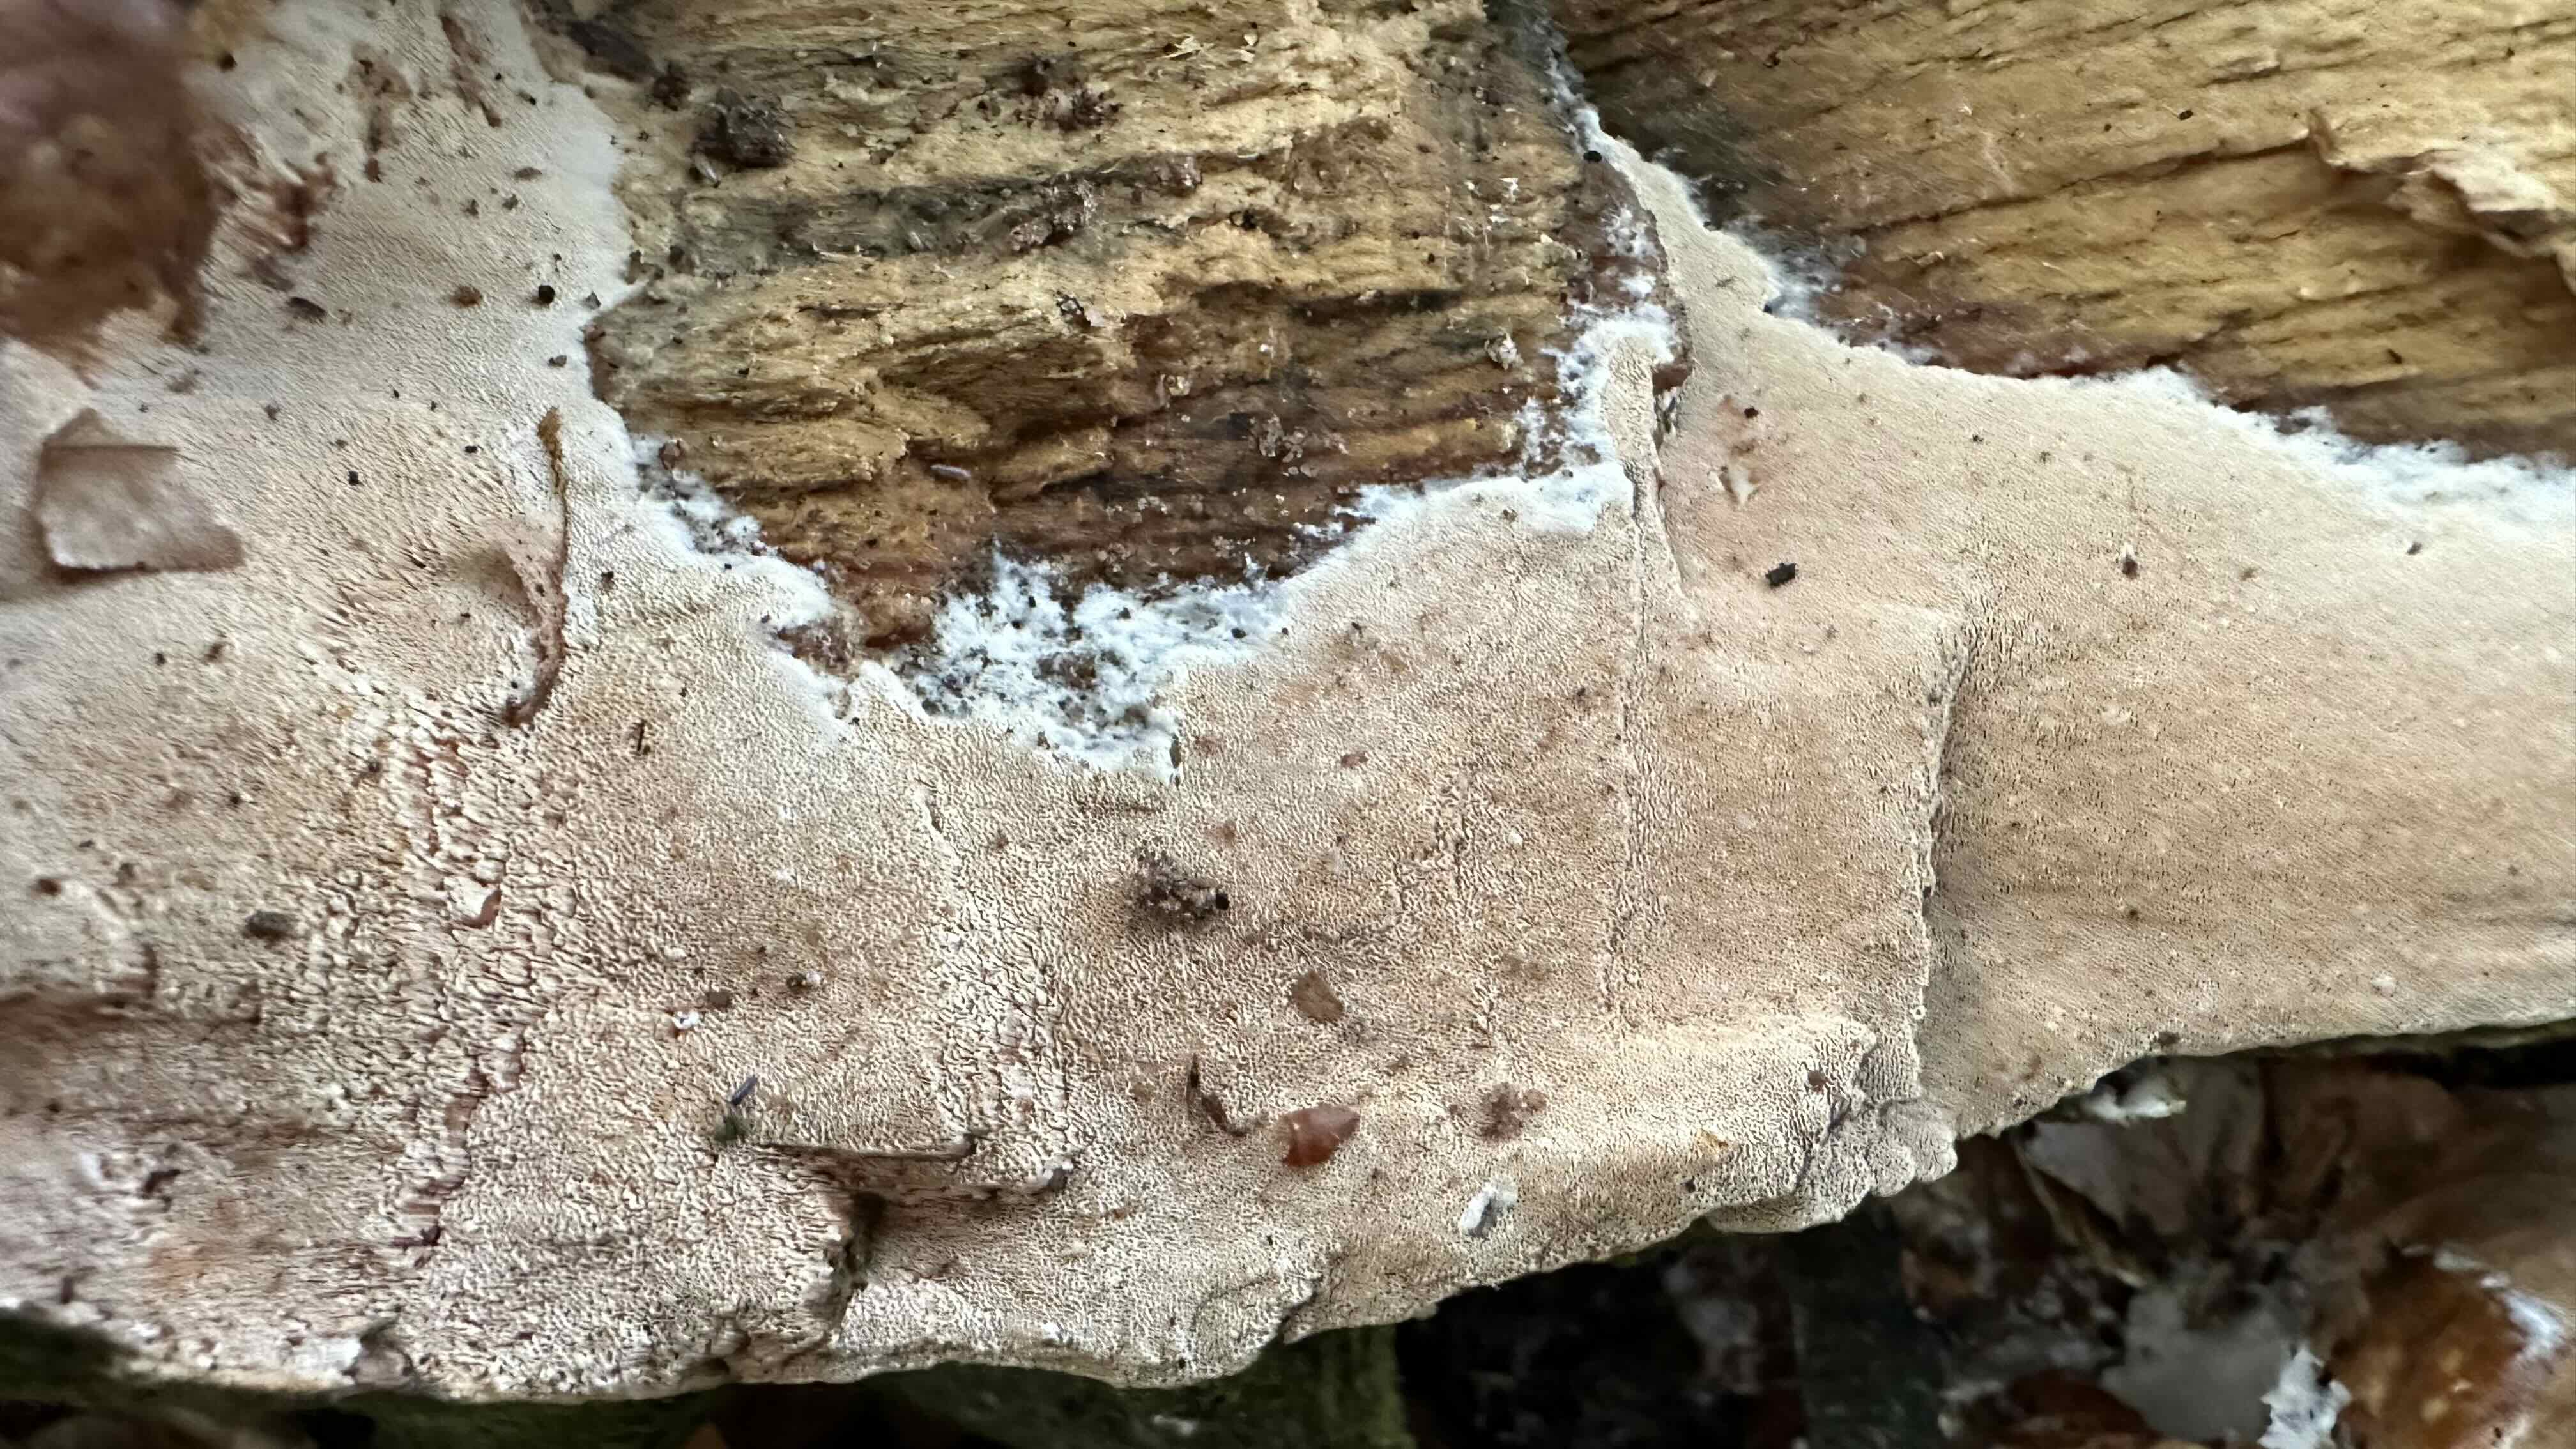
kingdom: Fungi
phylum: Basidiomycota
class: Agaricomycetes
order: Polyporales
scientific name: Polyporales
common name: poresvampordenen
